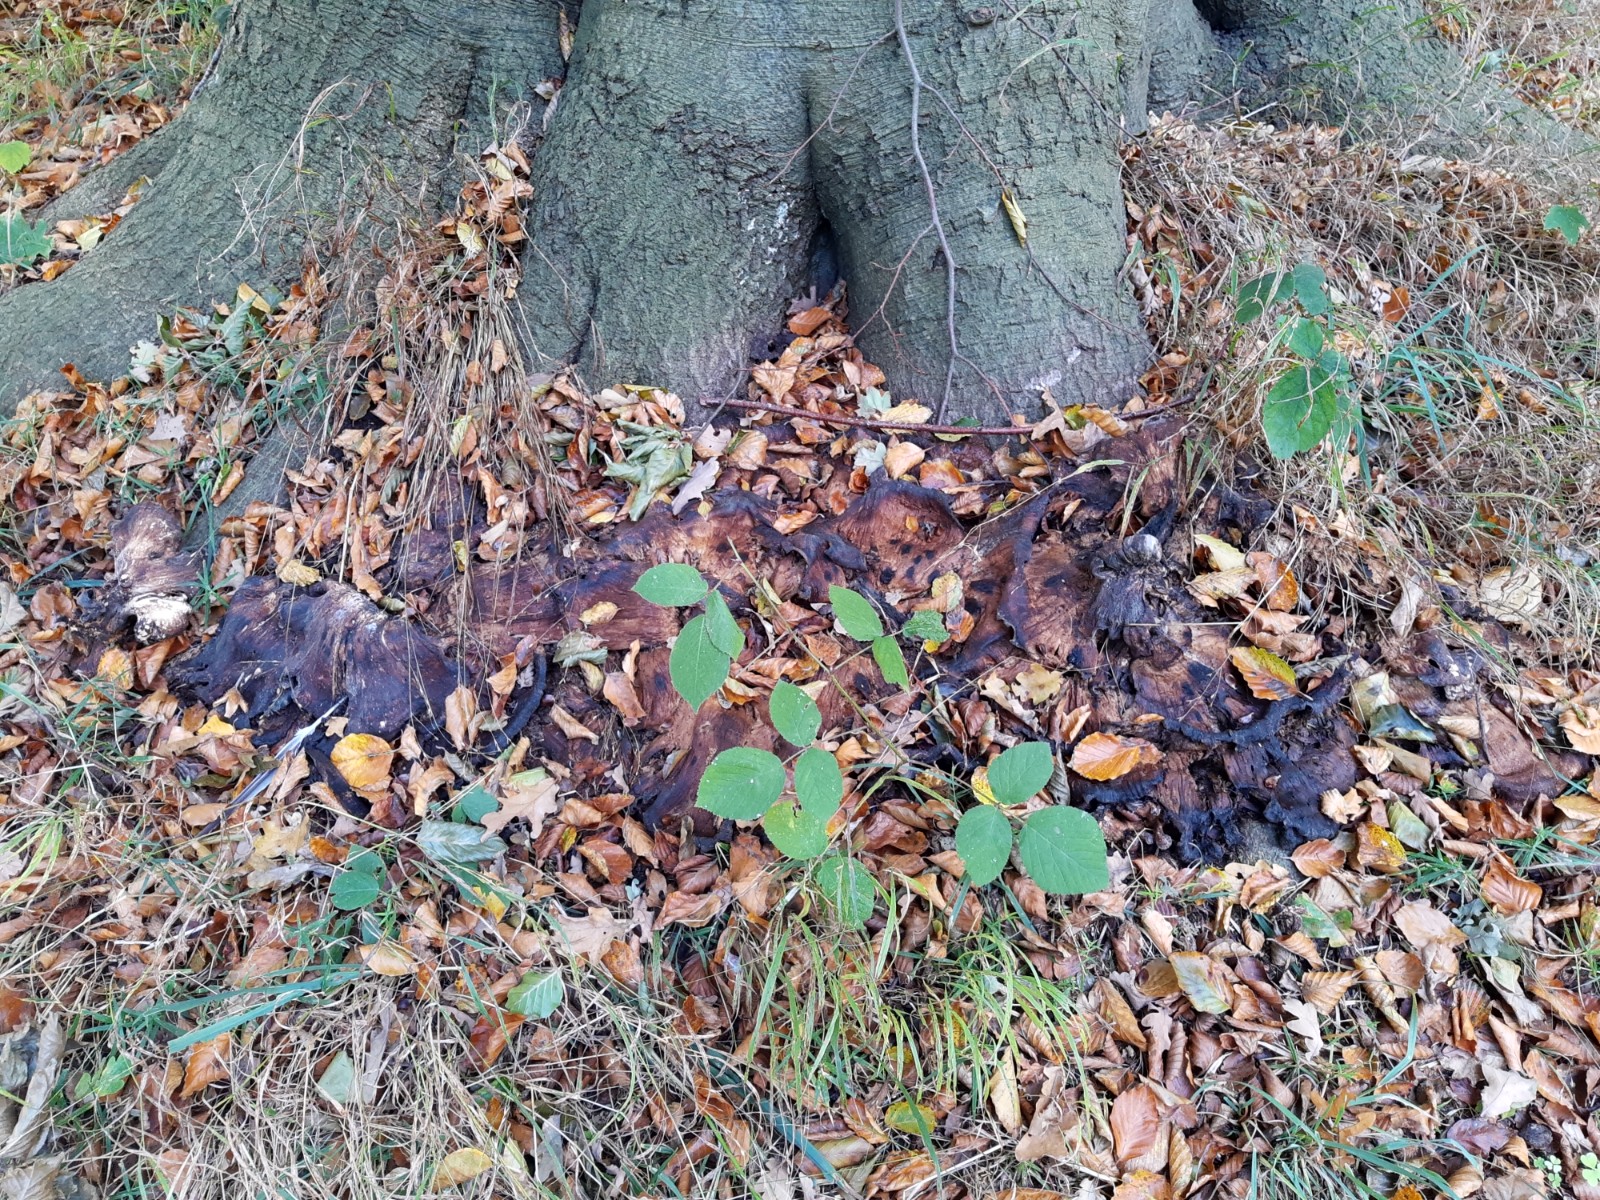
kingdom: Fungi
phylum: Basidiomycota
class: Agaricomycetes
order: Polyporales
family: Meripilaceae
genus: Meripilus
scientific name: Meripilus giganteus
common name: kæmpeporesvamp
